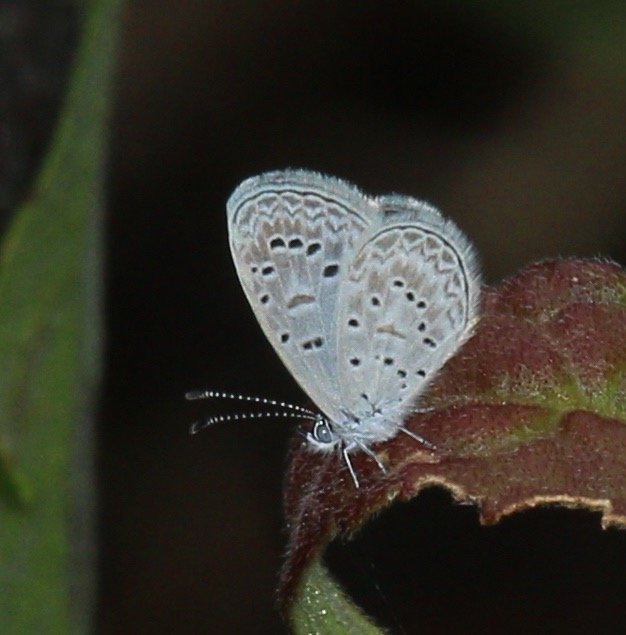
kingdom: Animalia
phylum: Arthropoda
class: Insecta
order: Lepidoptera
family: Lycaenidae
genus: Lycaena
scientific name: Lycaena cyna
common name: Cyna Blue
